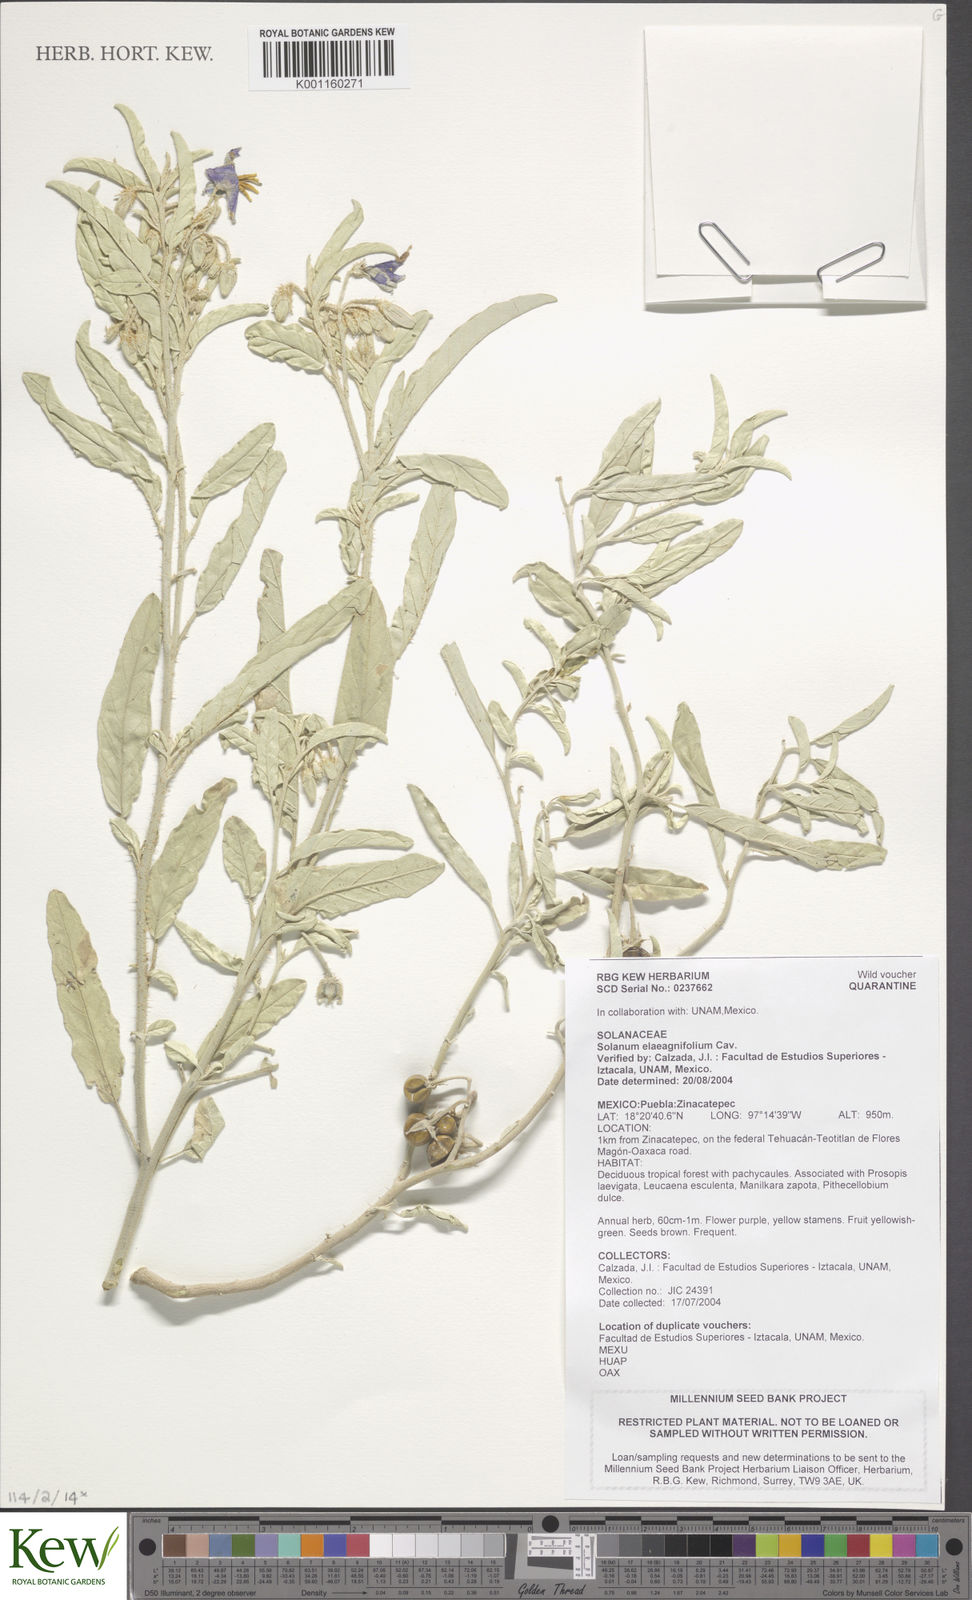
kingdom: Plantae
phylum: Tracheophyta
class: Magnoliopsida
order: Solanales
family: Solanaceae
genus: Solanum
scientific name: Solanum elaeagnifolium
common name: Silverleaf nightshade
